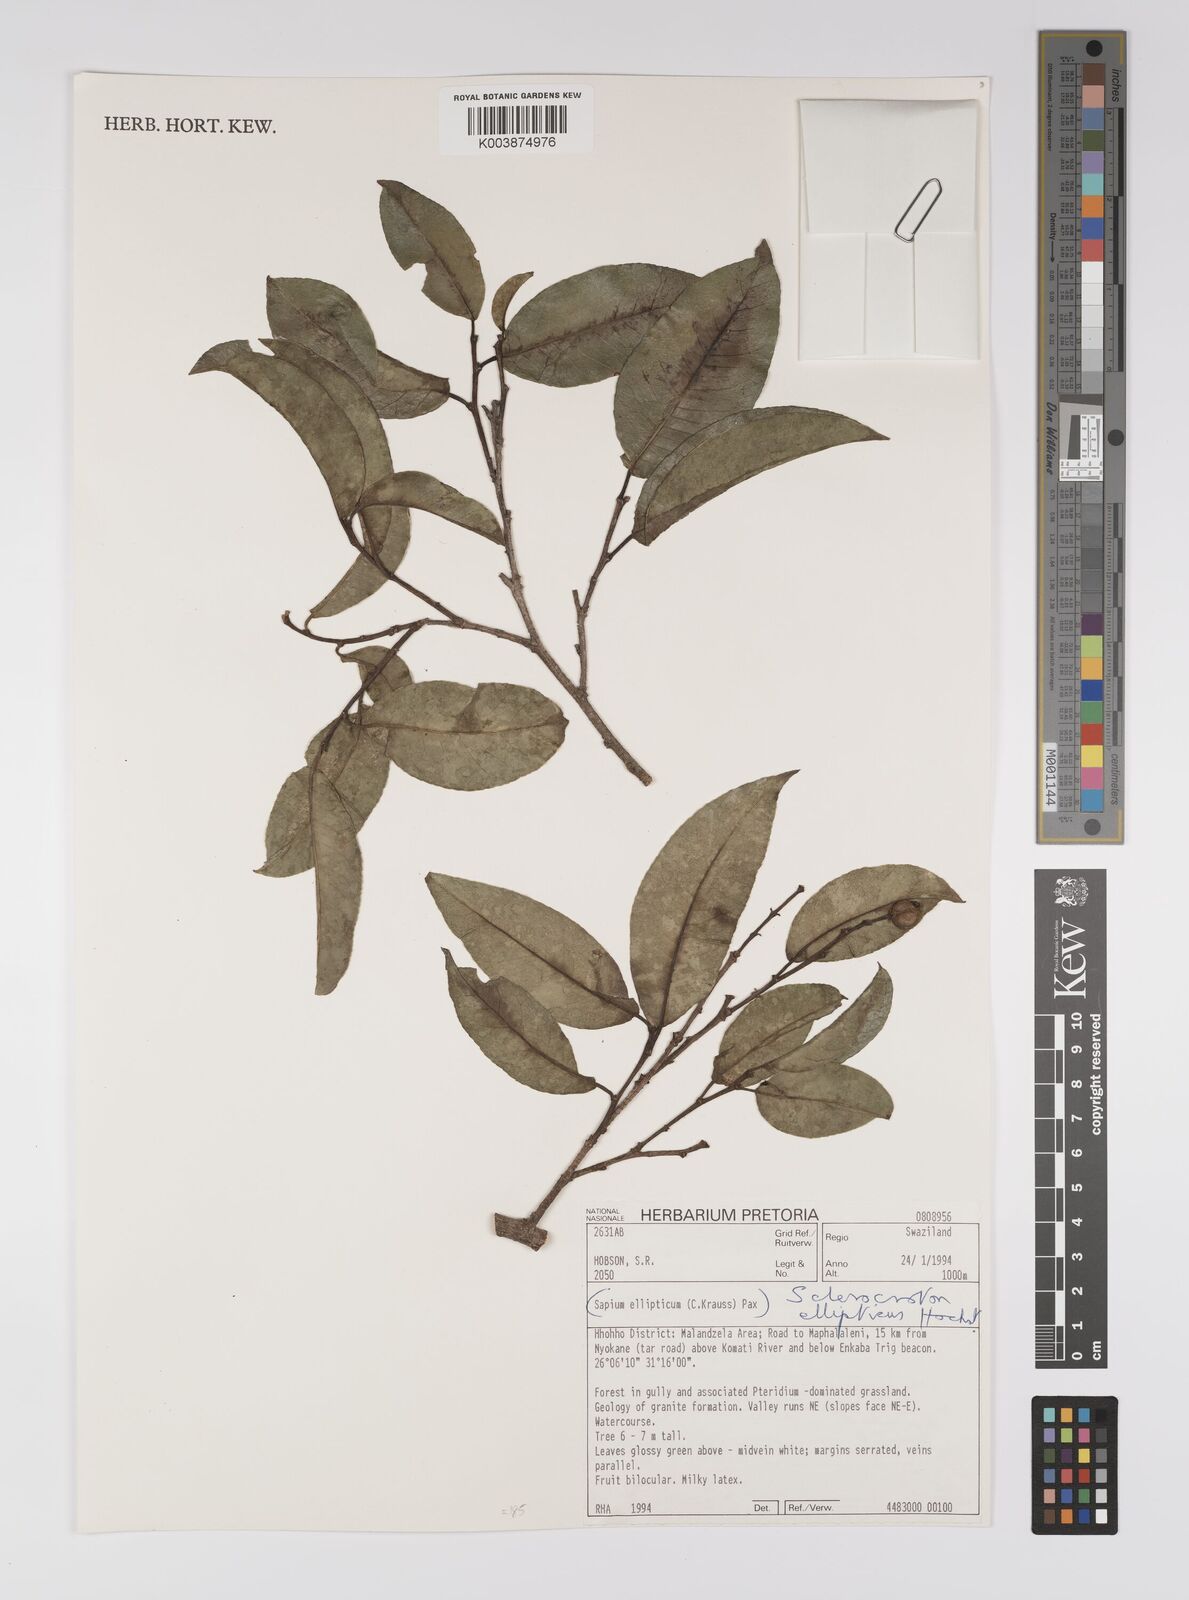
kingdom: Plantae
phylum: Tracheophyta
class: Magnoliopsida
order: Malpighiales
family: Euphorbiaceae
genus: Shirakiopsis
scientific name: Shirakiopsis elliptica
